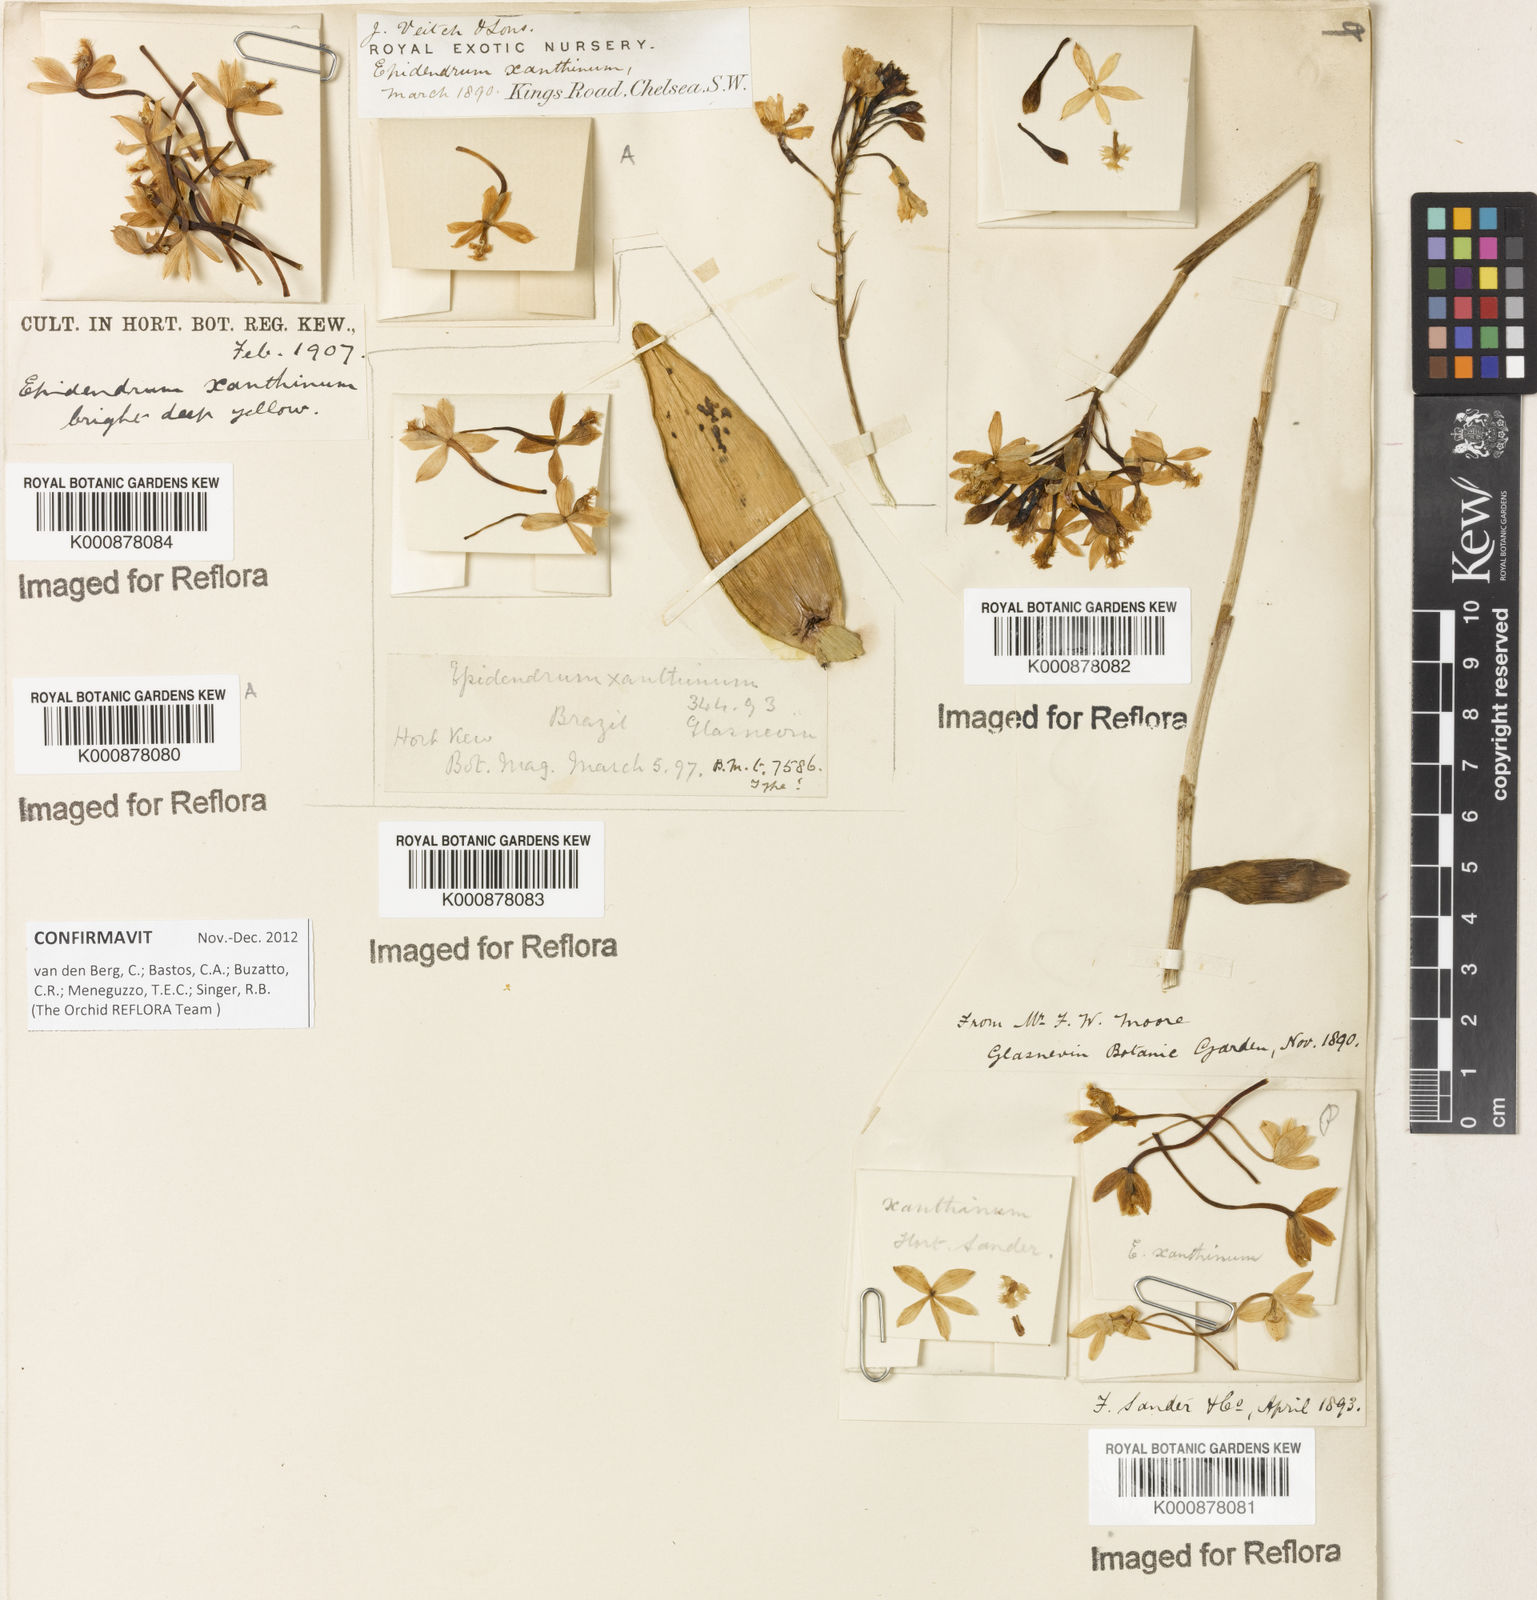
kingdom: Plantae
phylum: Tracheophyta
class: Liliopsida
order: Asparagales
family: Orchidaceae
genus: Epidendrum
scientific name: Epidendrum xanthinum
